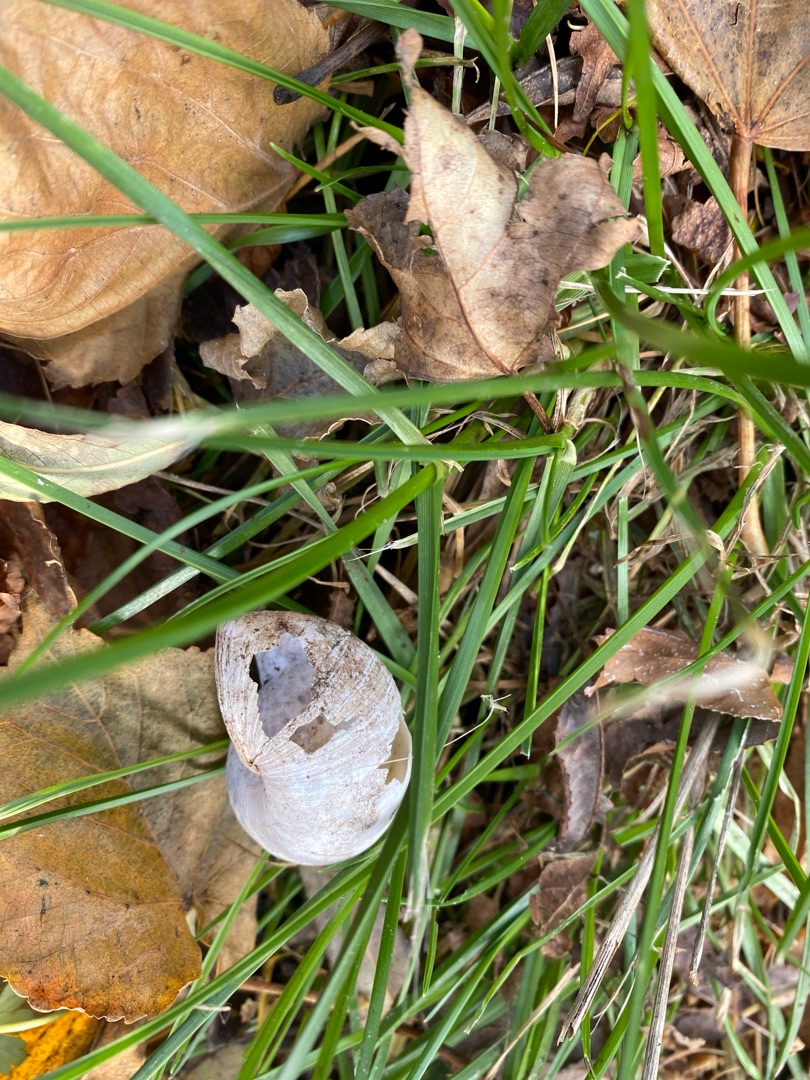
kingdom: Animalia
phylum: Mollusca
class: Gastropoda
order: Stylommatophora
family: Helicidae
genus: Helix
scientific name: Helix pomatia
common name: Vinbjergsnegl
